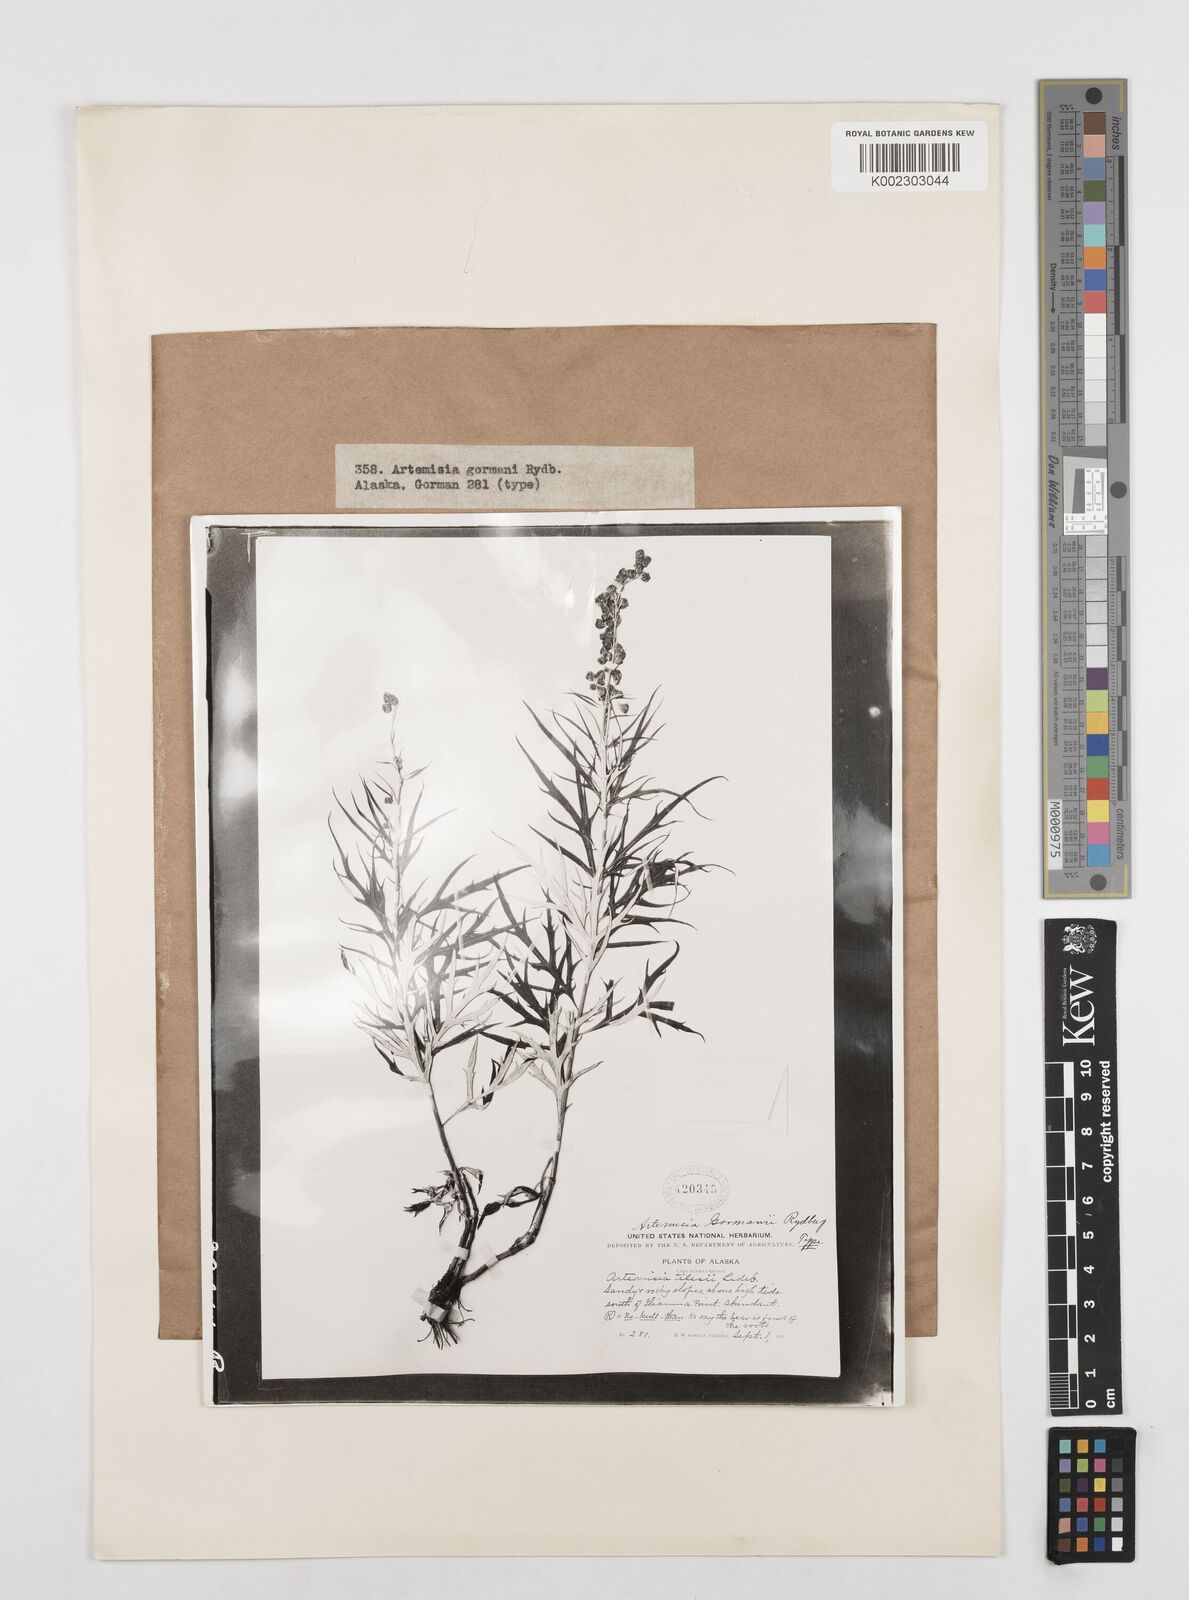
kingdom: Plantae
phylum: Tracheophyta
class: Magnoliopsida
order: Asterales
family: Asteraceae
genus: Artemisia
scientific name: Artemisia tilesii
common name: Aleutian mugwort
